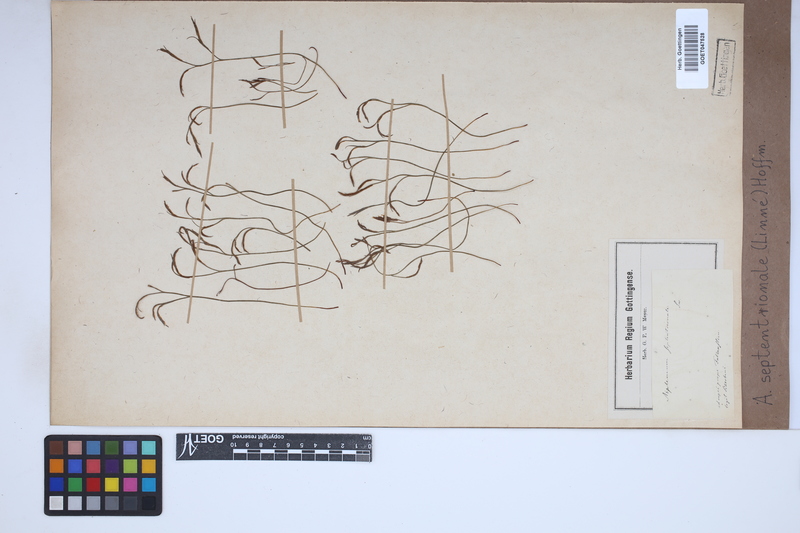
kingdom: Plantae
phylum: Tracheophyta
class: Polypodiopsida
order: Polypodiales
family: Aspleniaceae
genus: Asplenium
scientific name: Asplenium septentrionale
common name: Forked spleenwort
